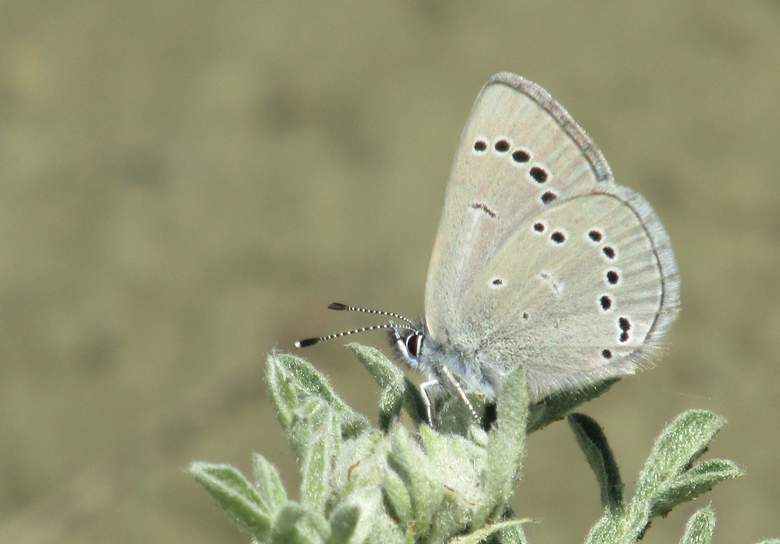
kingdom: Animalia
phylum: Arthropoda
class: Insecta
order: Lepidoptera
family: Lycaenidae
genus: Glaucopsyche
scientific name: Glaucopsyche lygdamus
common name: Silvery Blue
